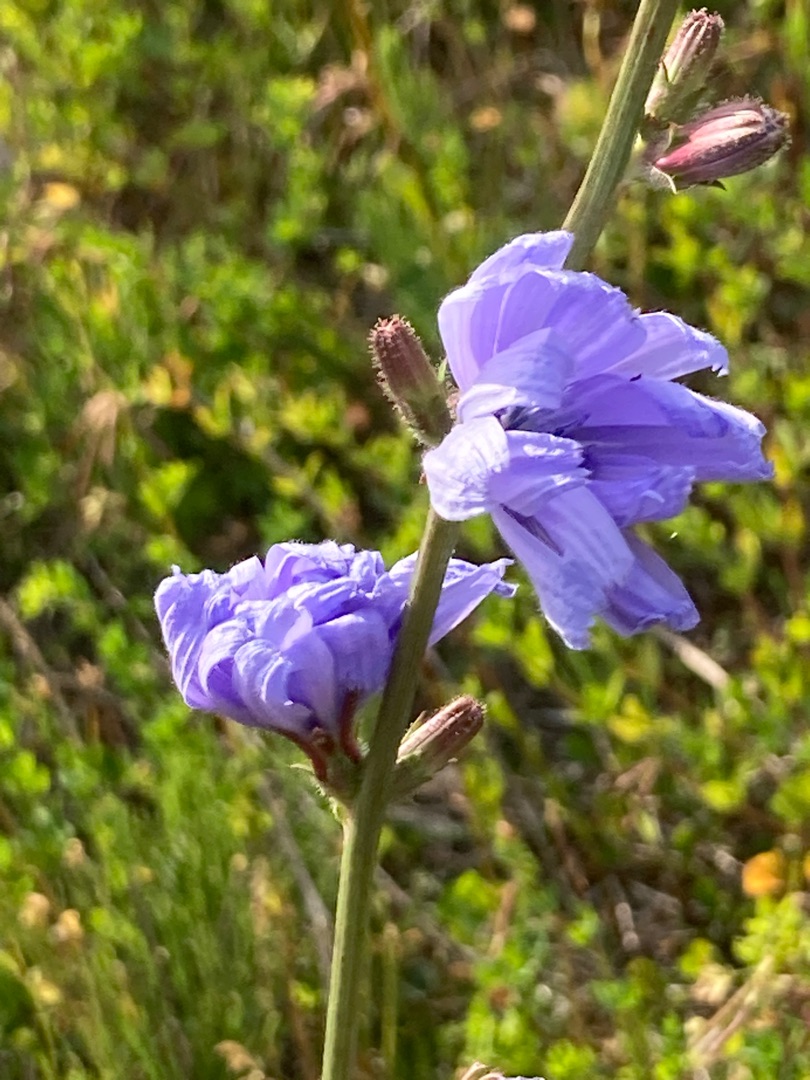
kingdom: Plantae
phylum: Tracheophyta
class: Magnoliopsida
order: Asterales
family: Asteraceae
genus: Cichorium
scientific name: Cichorium intybus
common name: Cikorie
